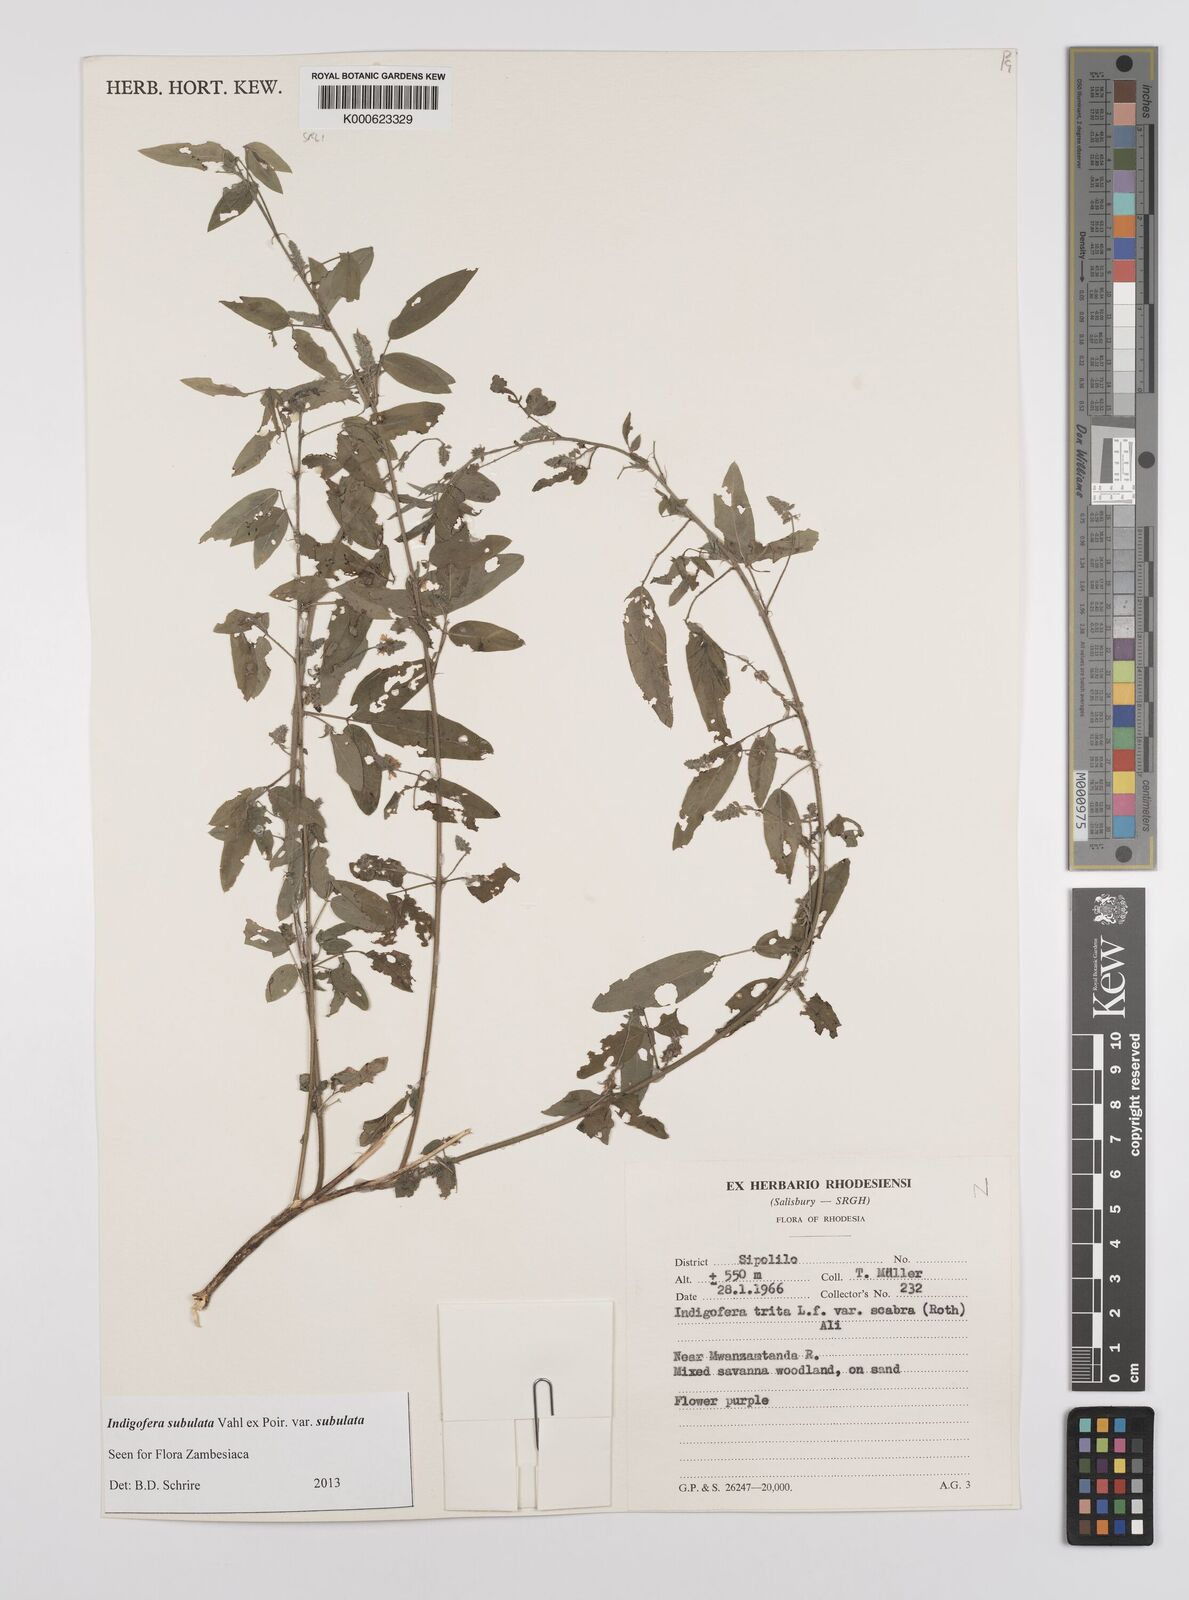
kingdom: Plantae
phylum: Tracheophyta
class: Magnoliopsida
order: Fabales
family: Fabaceae
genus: Indigofera
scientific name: Indigofera subulata
